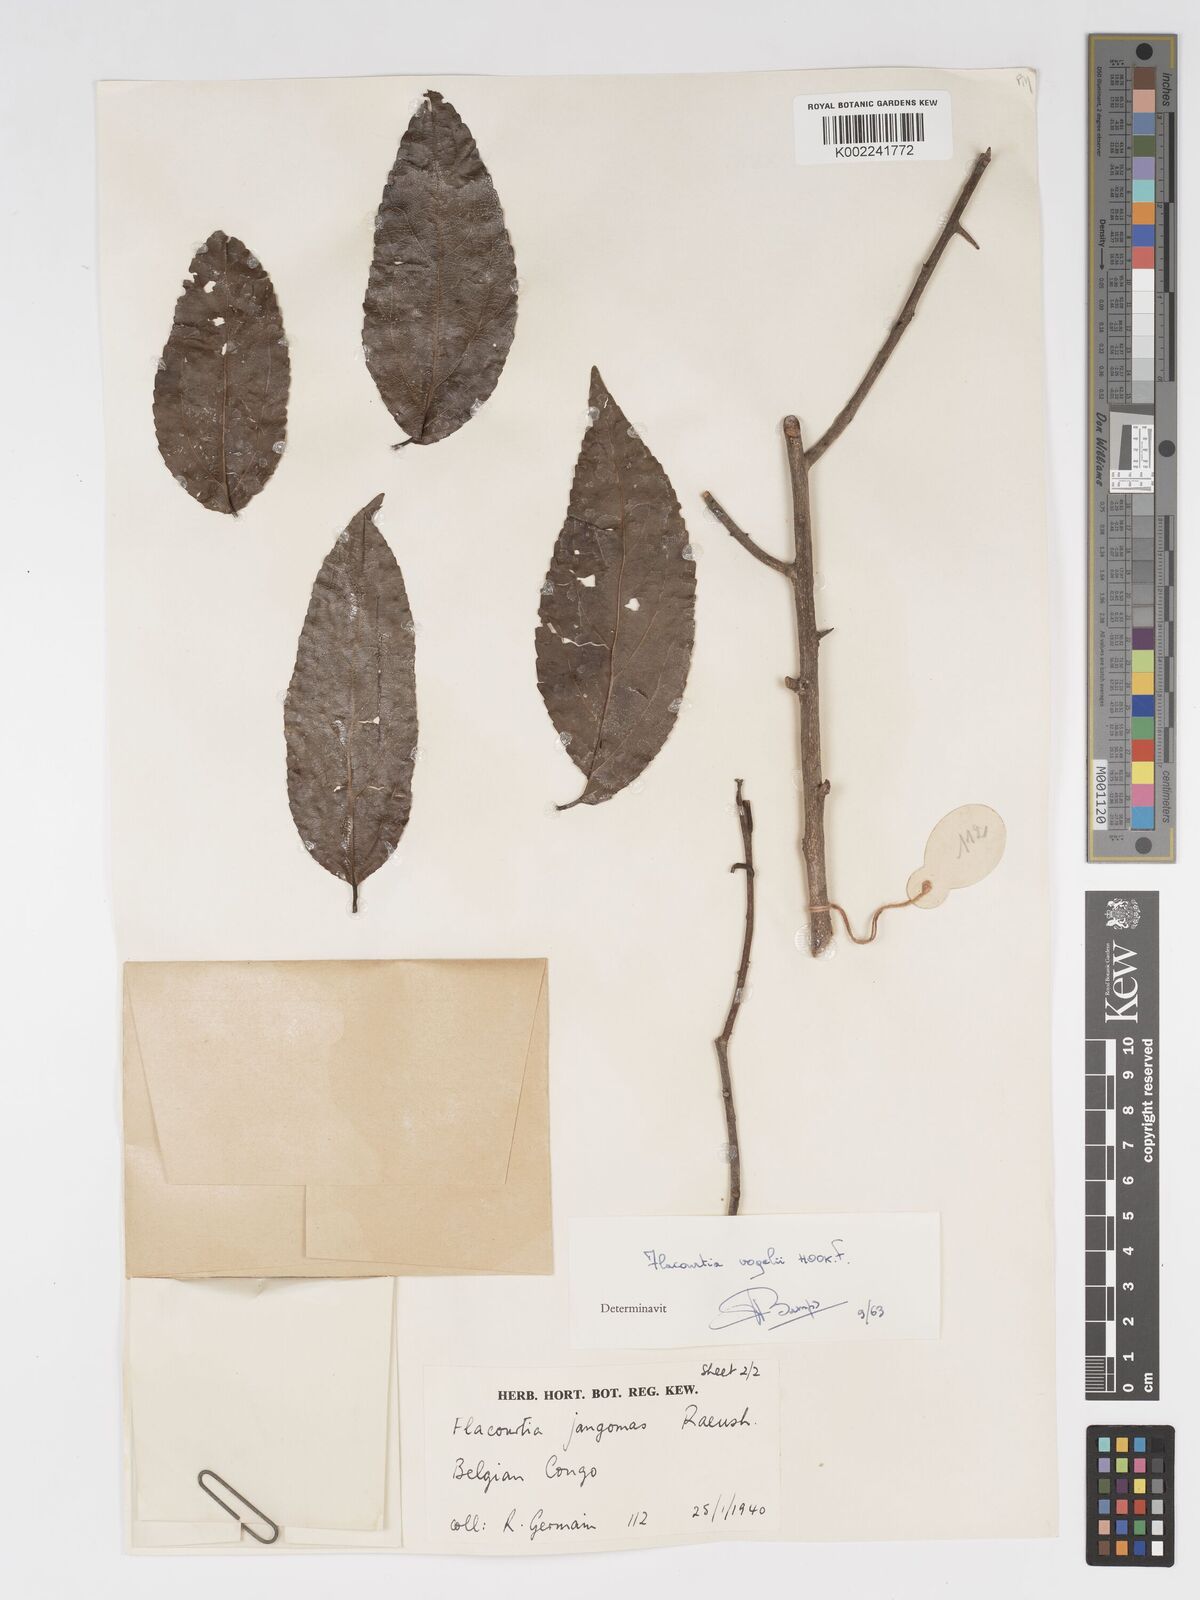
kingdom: Plantae
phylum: Tracheophyta
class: Magnoliopsida
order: Malpighiales
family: Salicaceae
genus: Flacourtia
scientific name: Flacourtia vogelii
